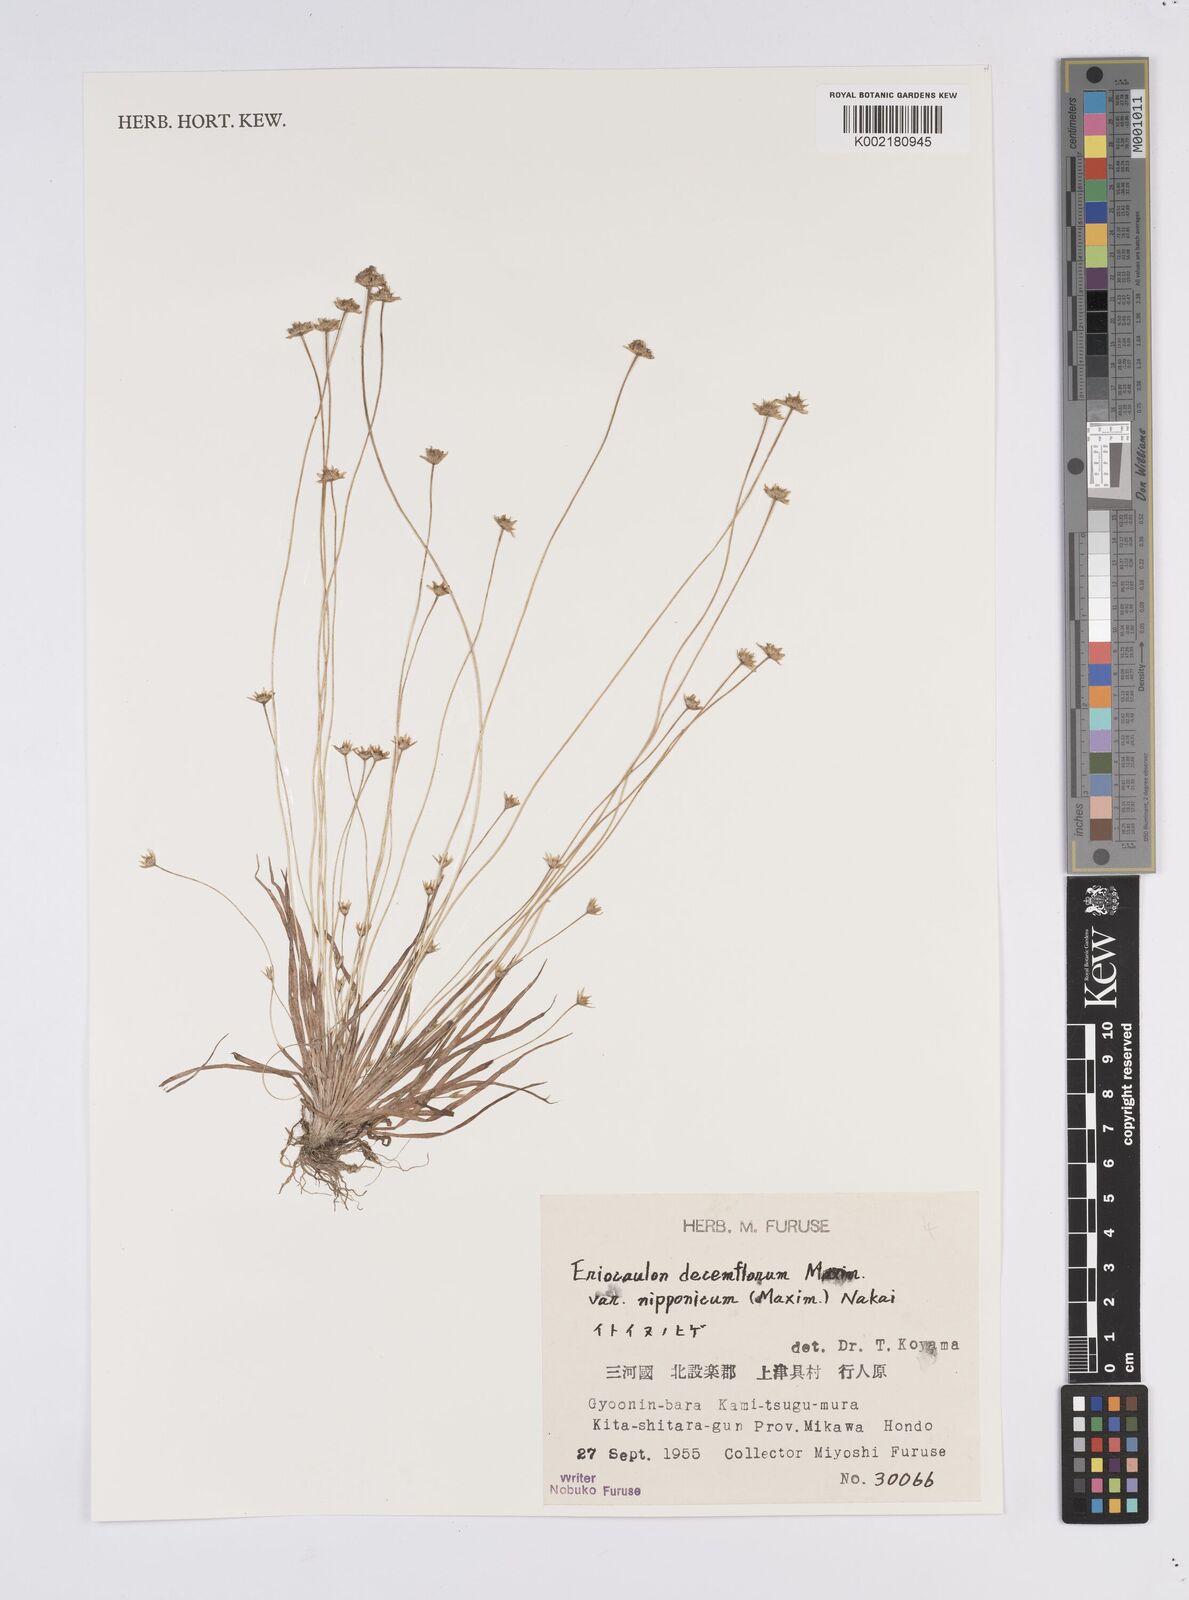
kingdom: Plantae
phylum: Tracheophyta
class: Liliopsida
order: Poales
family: Eriocaulaceae
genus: Eriocaulon
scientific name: Eriocaulon decemflorum
